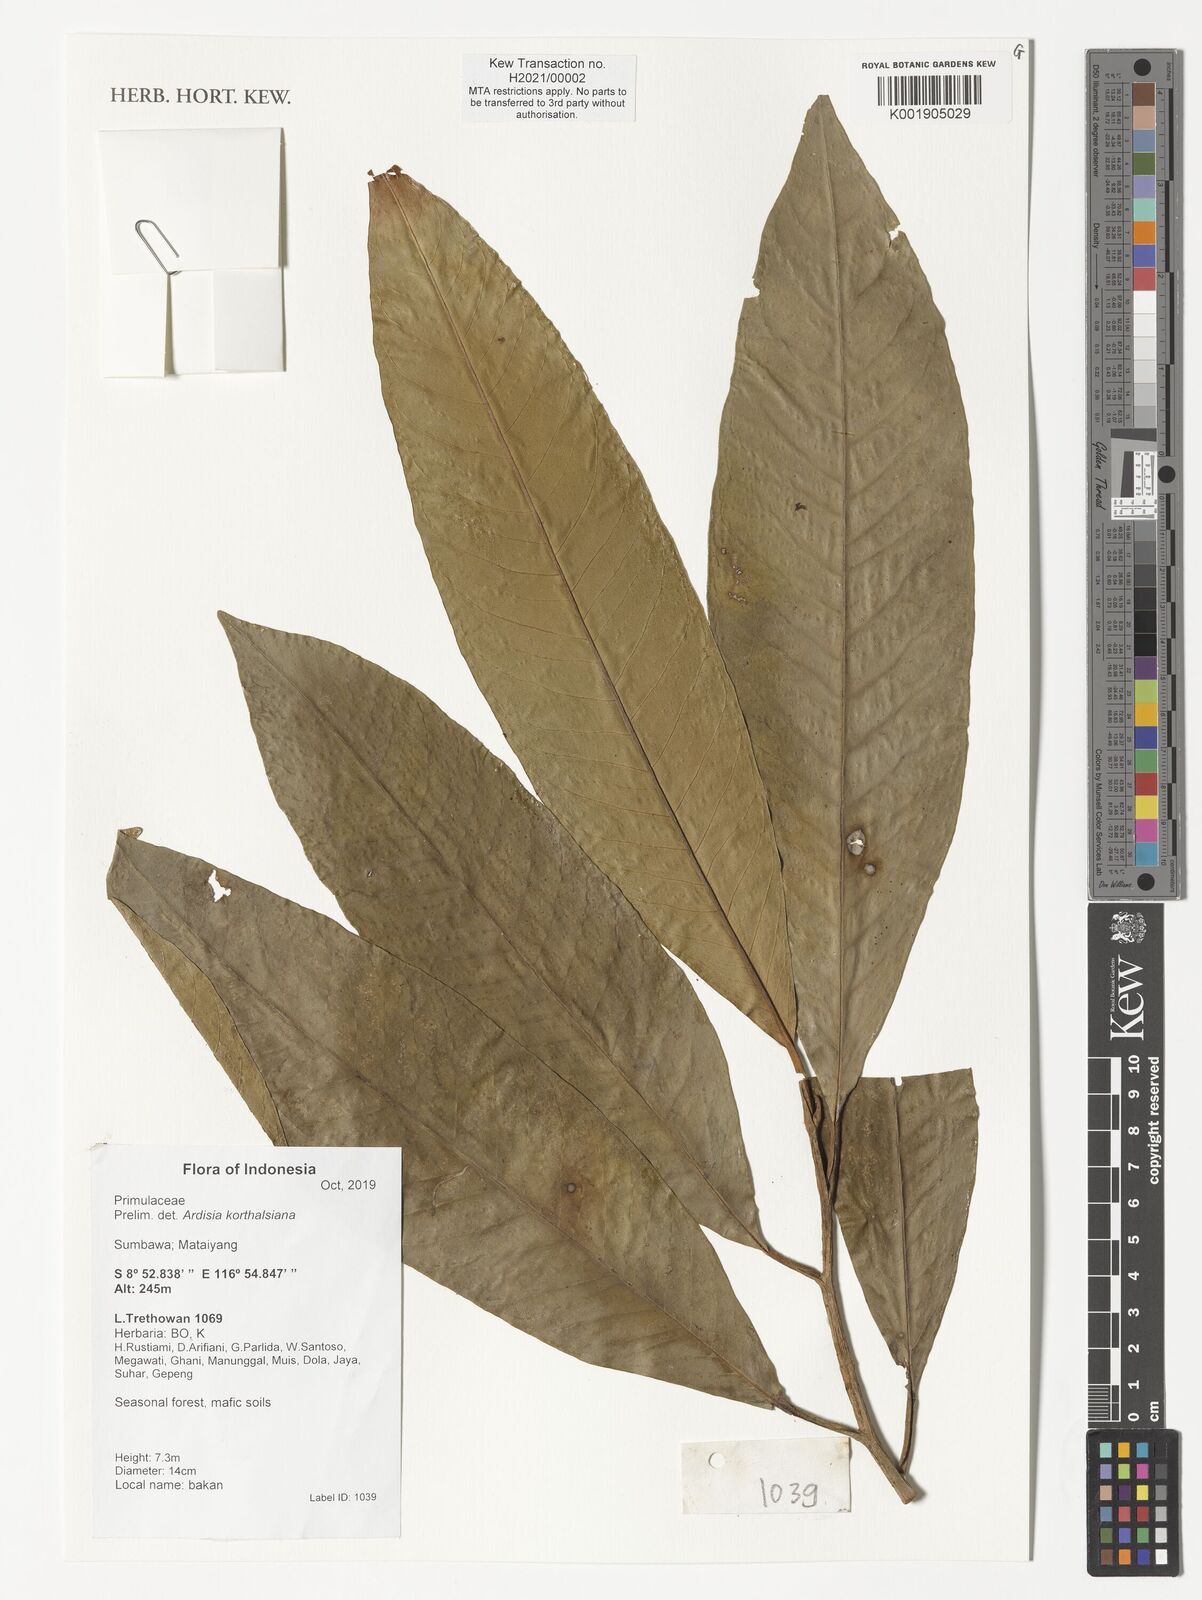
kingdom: Plantae
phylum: Tracheophyta
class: Magnoliopsida
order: Ericales
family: Primulaceae
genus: Ardisia
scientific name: Ardisia korthalsiana
